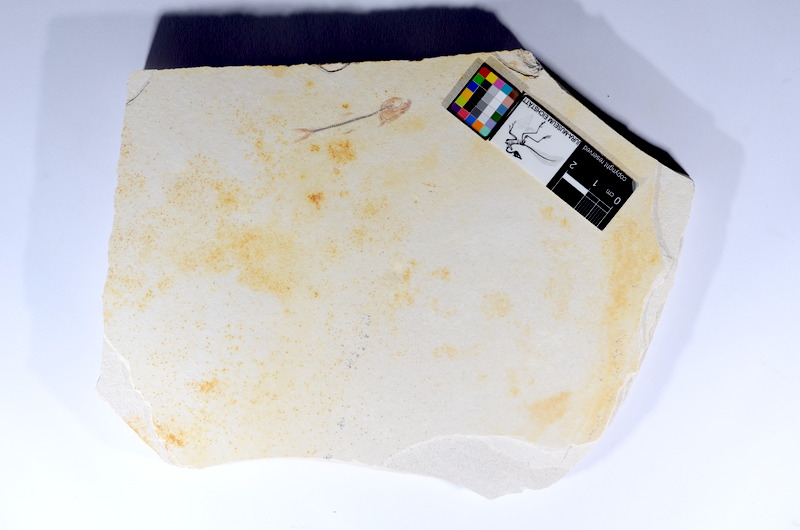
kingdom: Animalia
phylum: Chordata
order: Salmoniformes
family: Orthogonikleithridae
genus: Orthogonikleithrus
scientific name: Orthogonikleithrus hoelli
